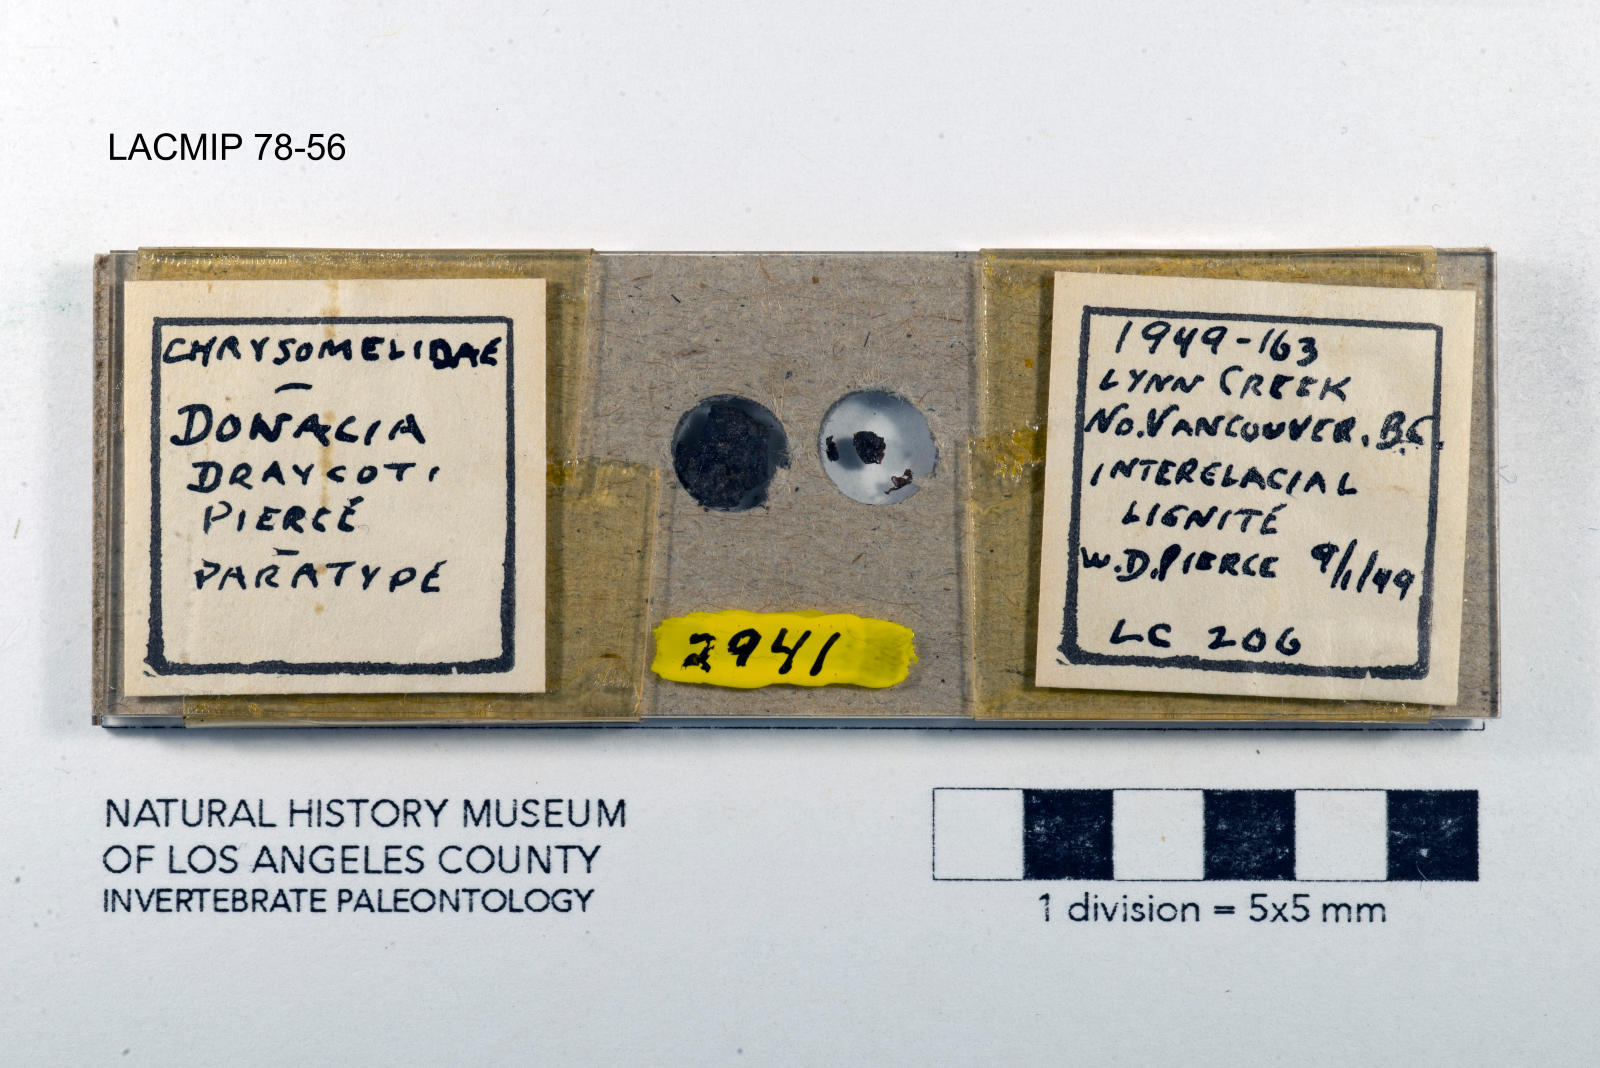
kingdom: Animalia
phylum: Arthropoda
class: Insecta
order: Coleoptera
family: Chrysomelidae
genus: Donacia
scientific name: Donacia draycoti
